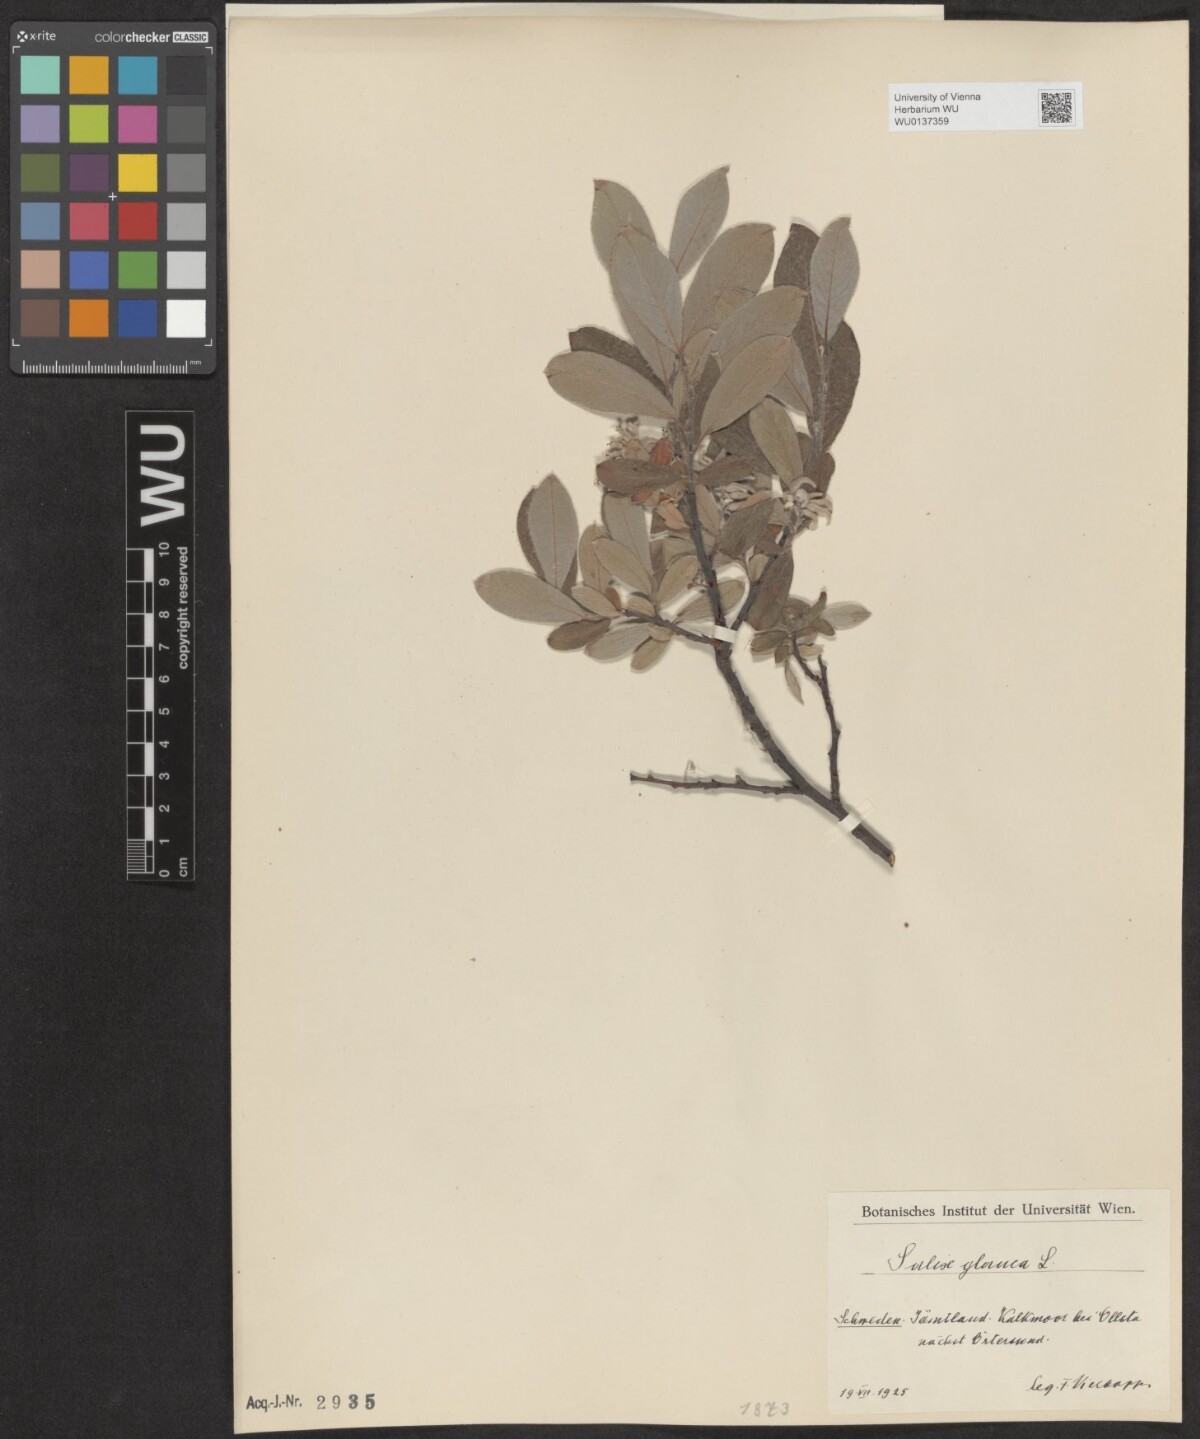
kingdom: Plantae
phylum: Tracheophyta
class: Magnoliopsida
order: Malpighiales
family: Salicaceae
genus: Salix
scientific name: Salix glauca
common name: Glaucous willow
